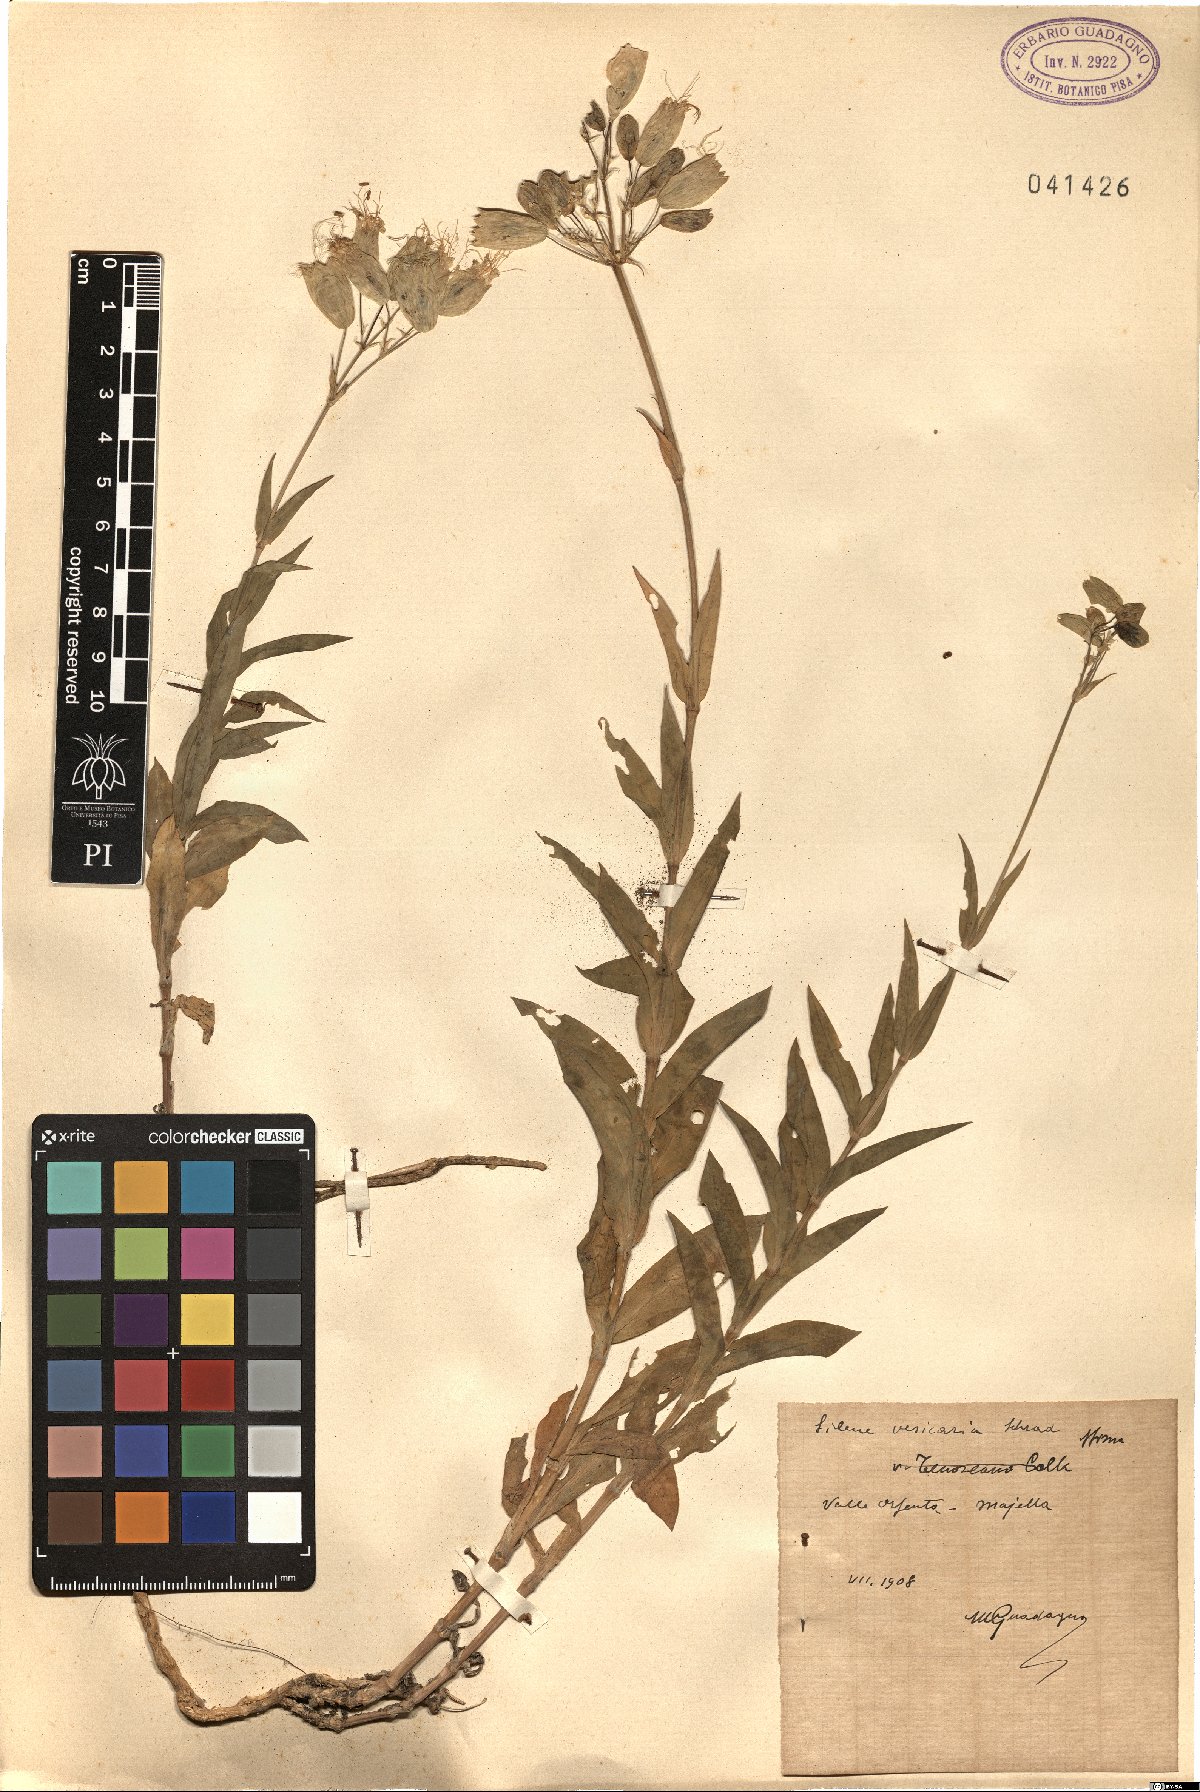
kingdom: Plantae
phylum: Tracheophyta
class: Magnoliopsida
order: Caryophyllales
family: Caryophyllaceae
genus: Silene
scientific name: Silene vulgaris
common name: Bladder campion
